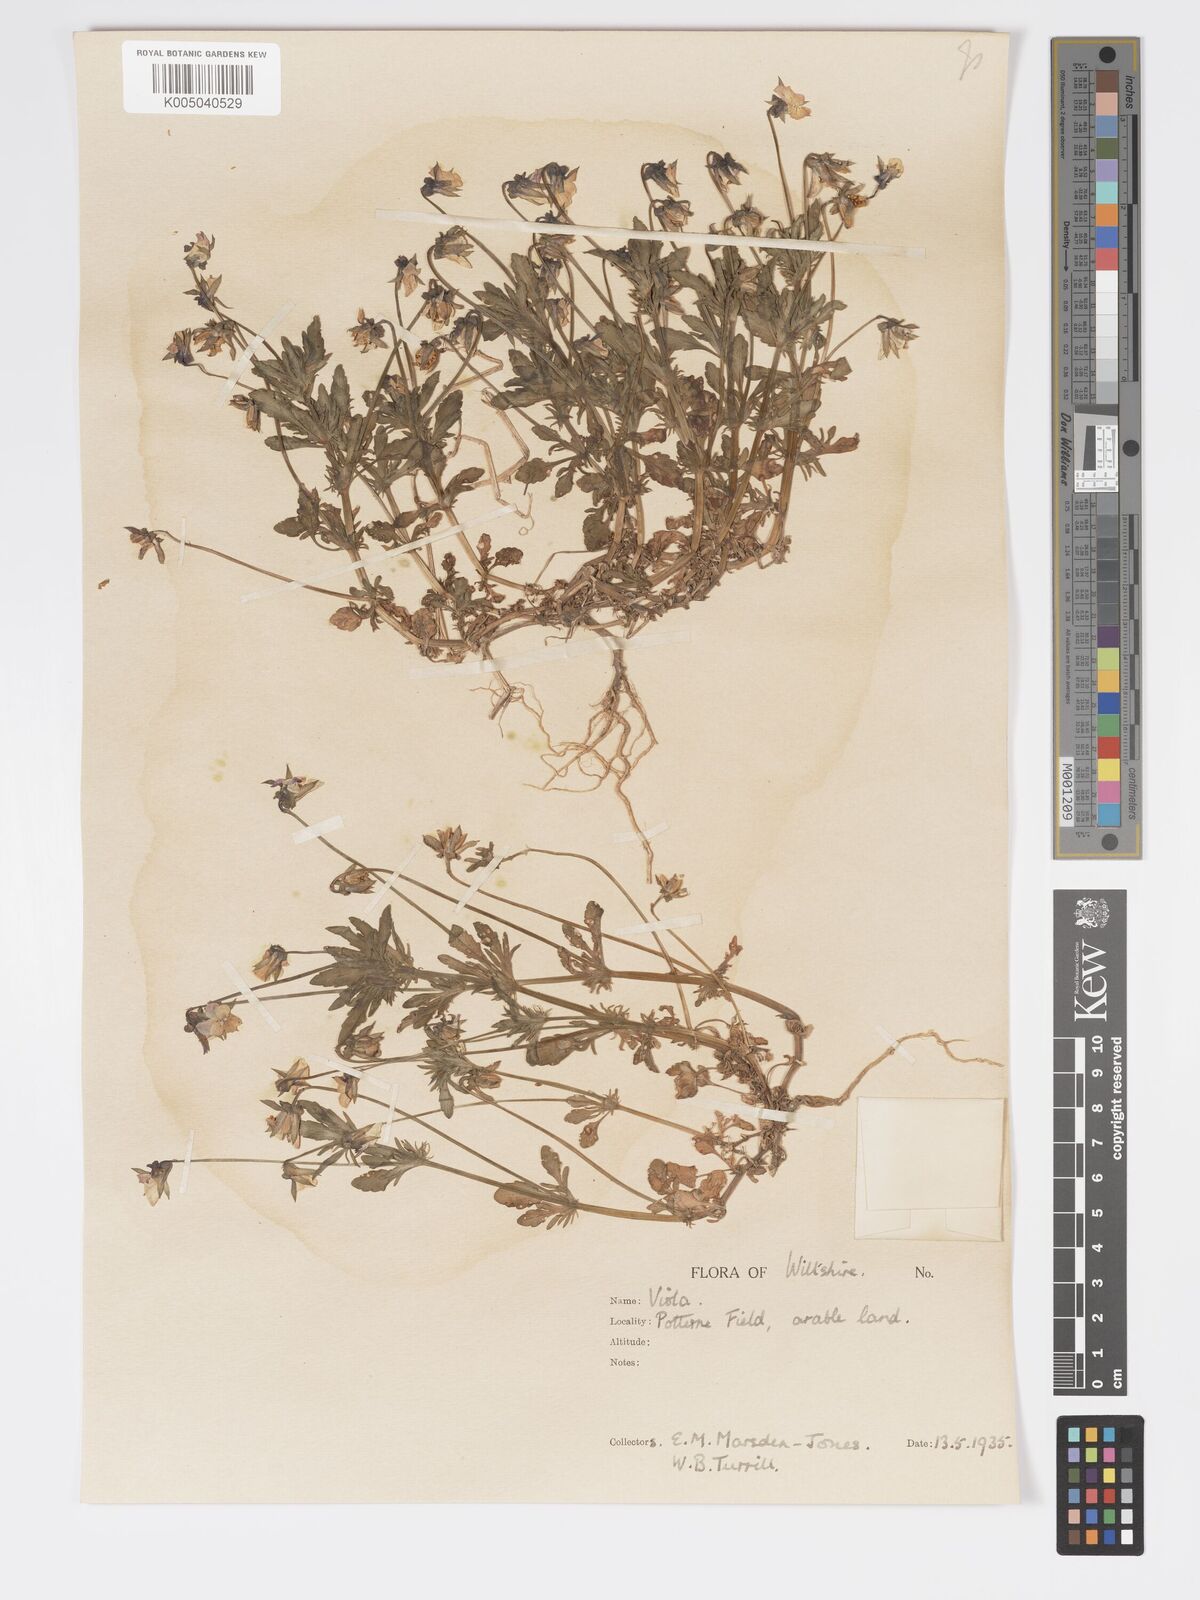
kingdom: Plantae
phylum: Tracheophyta
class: Magnoliopsida
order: Malpighiales
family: Violaceae
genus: Viola
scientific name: Viola
